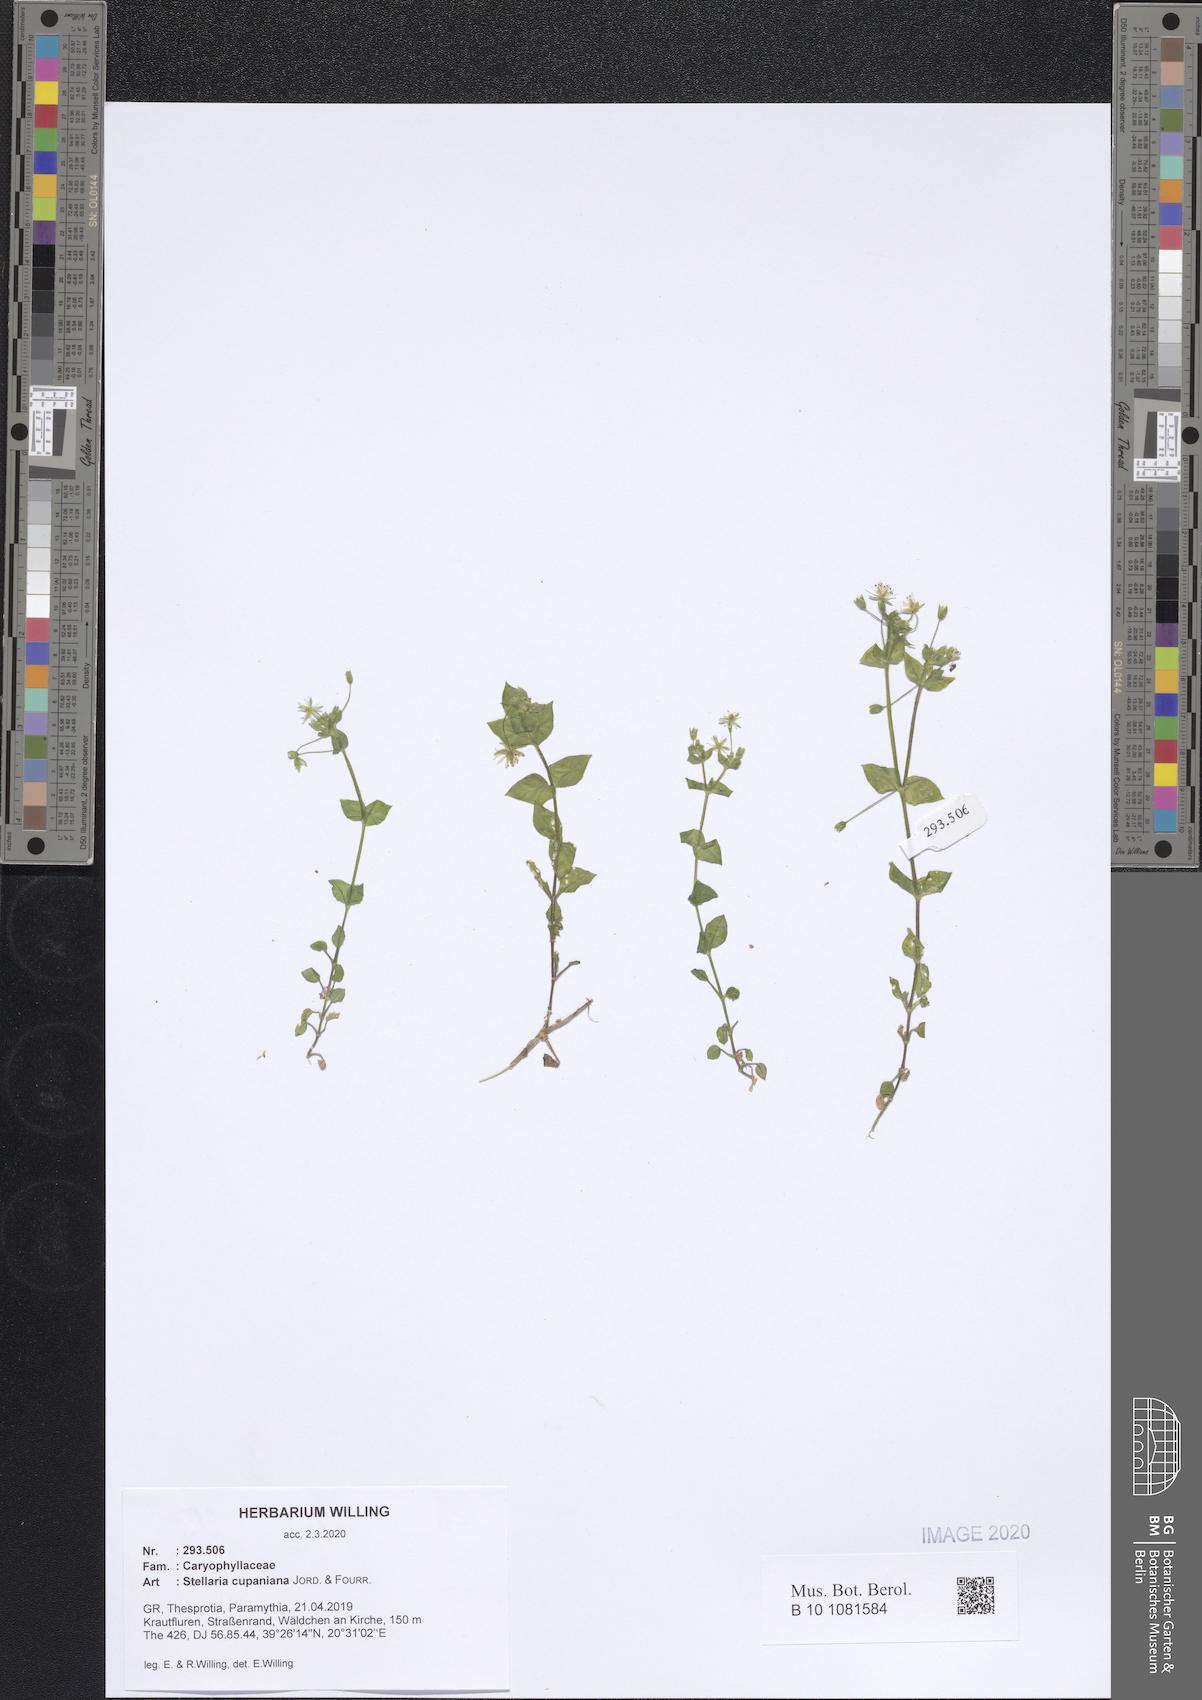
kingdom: Plantae
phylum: Tracheophyta
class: Magnoliopsida
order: Caryophyllales
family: Caryophyllaceae
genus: Stellaria
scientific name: Stellaria cupaniana
